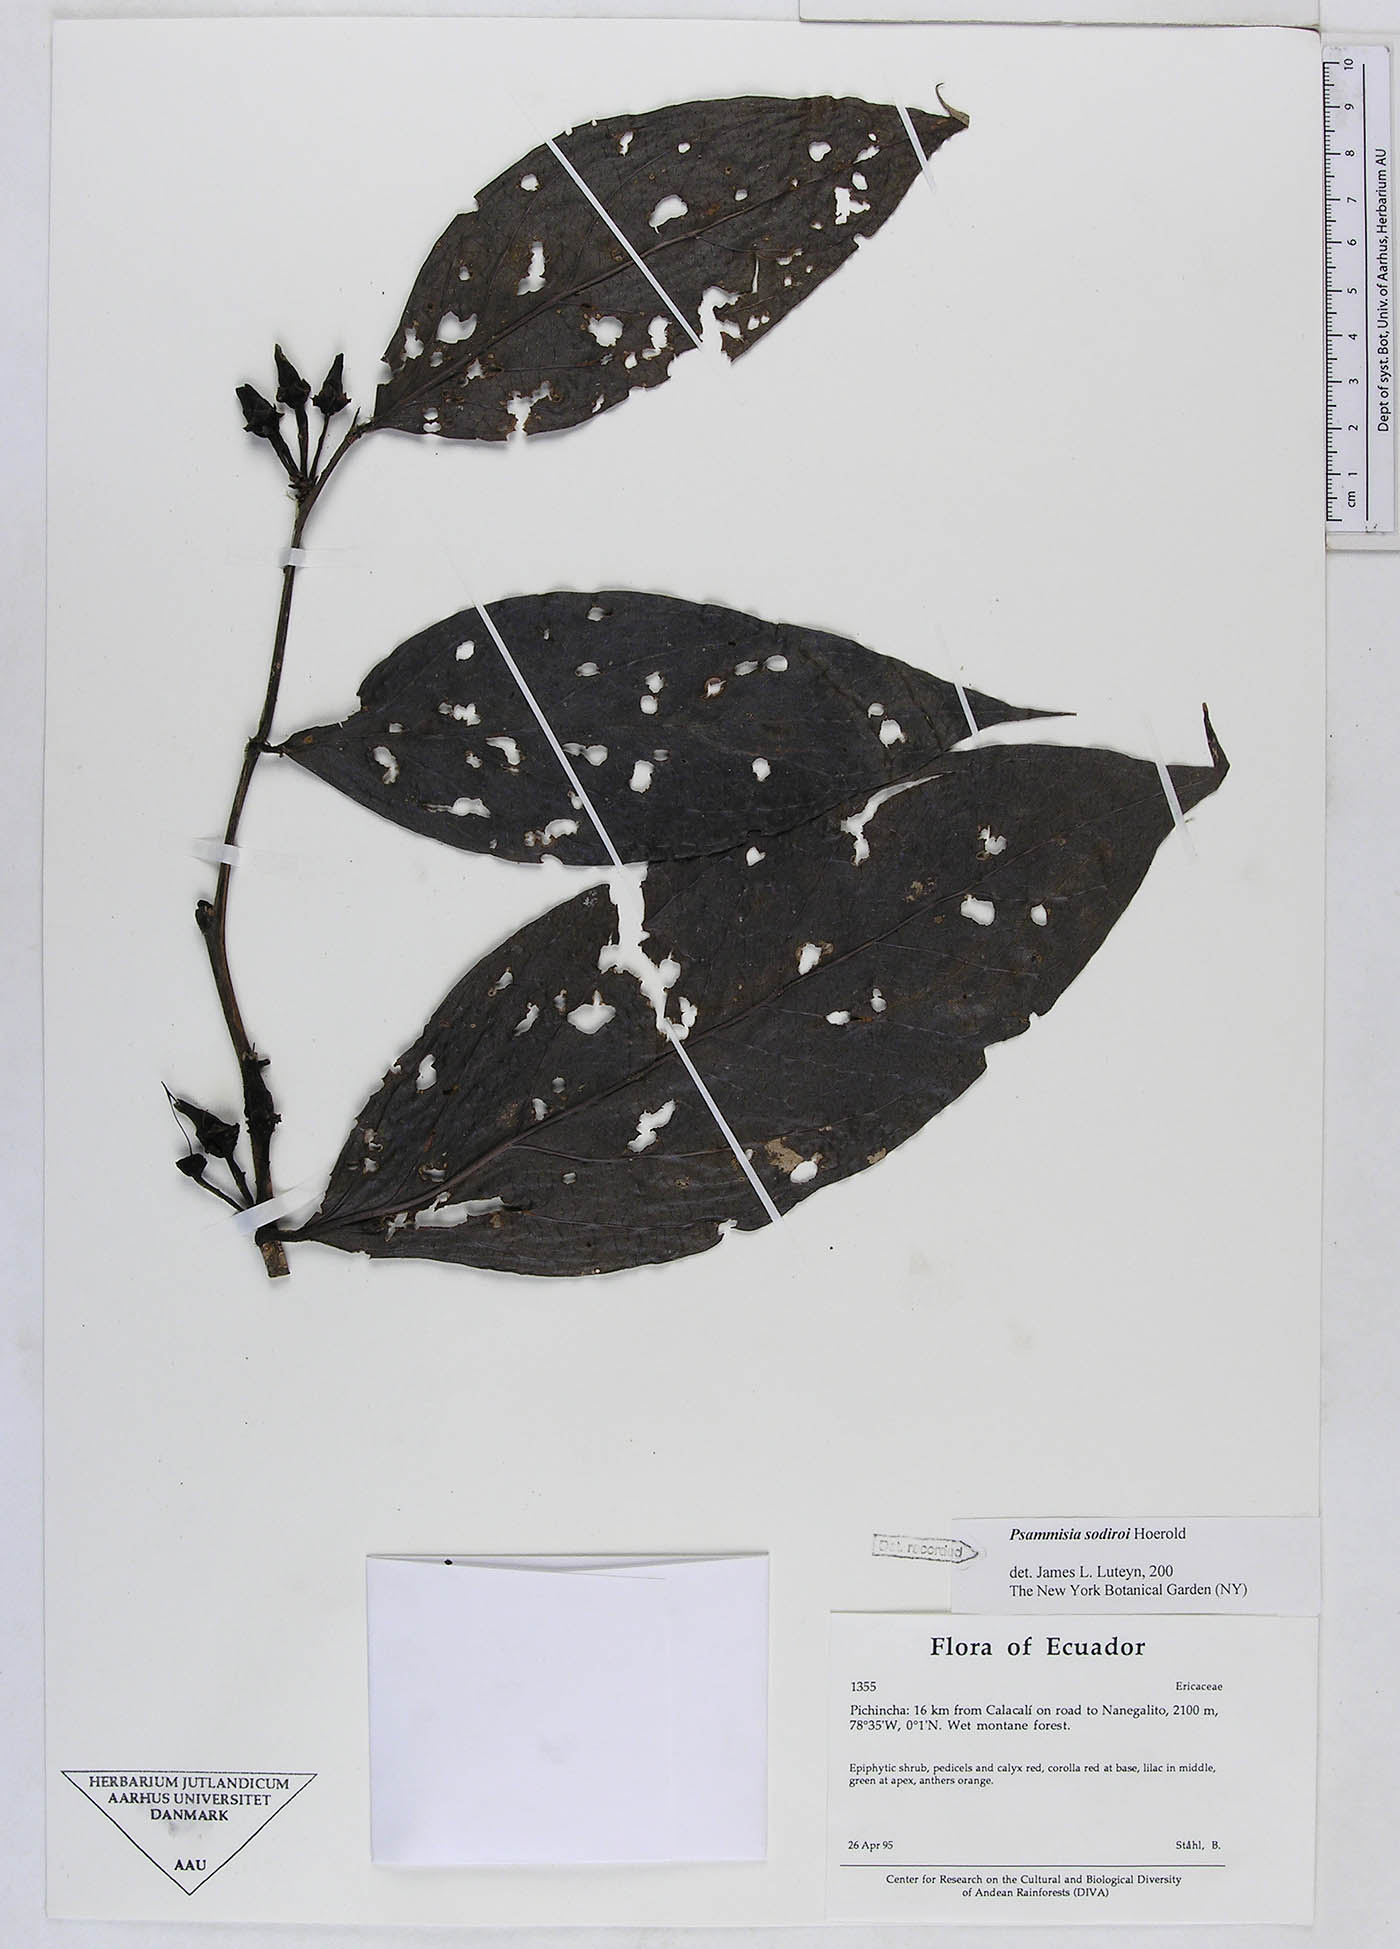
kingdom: Plantae
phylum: Tracheophyta
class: Magnoliopsida
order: Ericales
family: Ericaceae
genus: Psammisia
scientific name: Psammisia sodiroi
